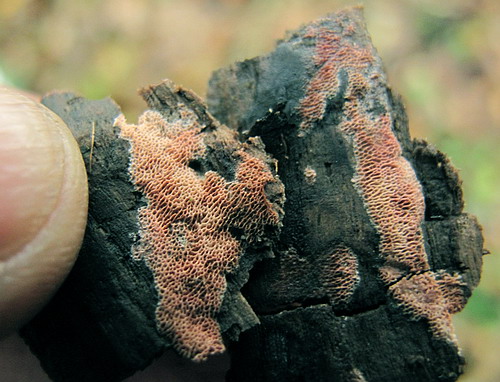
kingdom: Fungi
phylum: Basidiomycota
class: Agaricomycetes
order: Polyporales
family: Irpicaceae
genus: Ceriporia
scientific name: Ceriporia purpurea
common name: purpur-voksporesvamp
